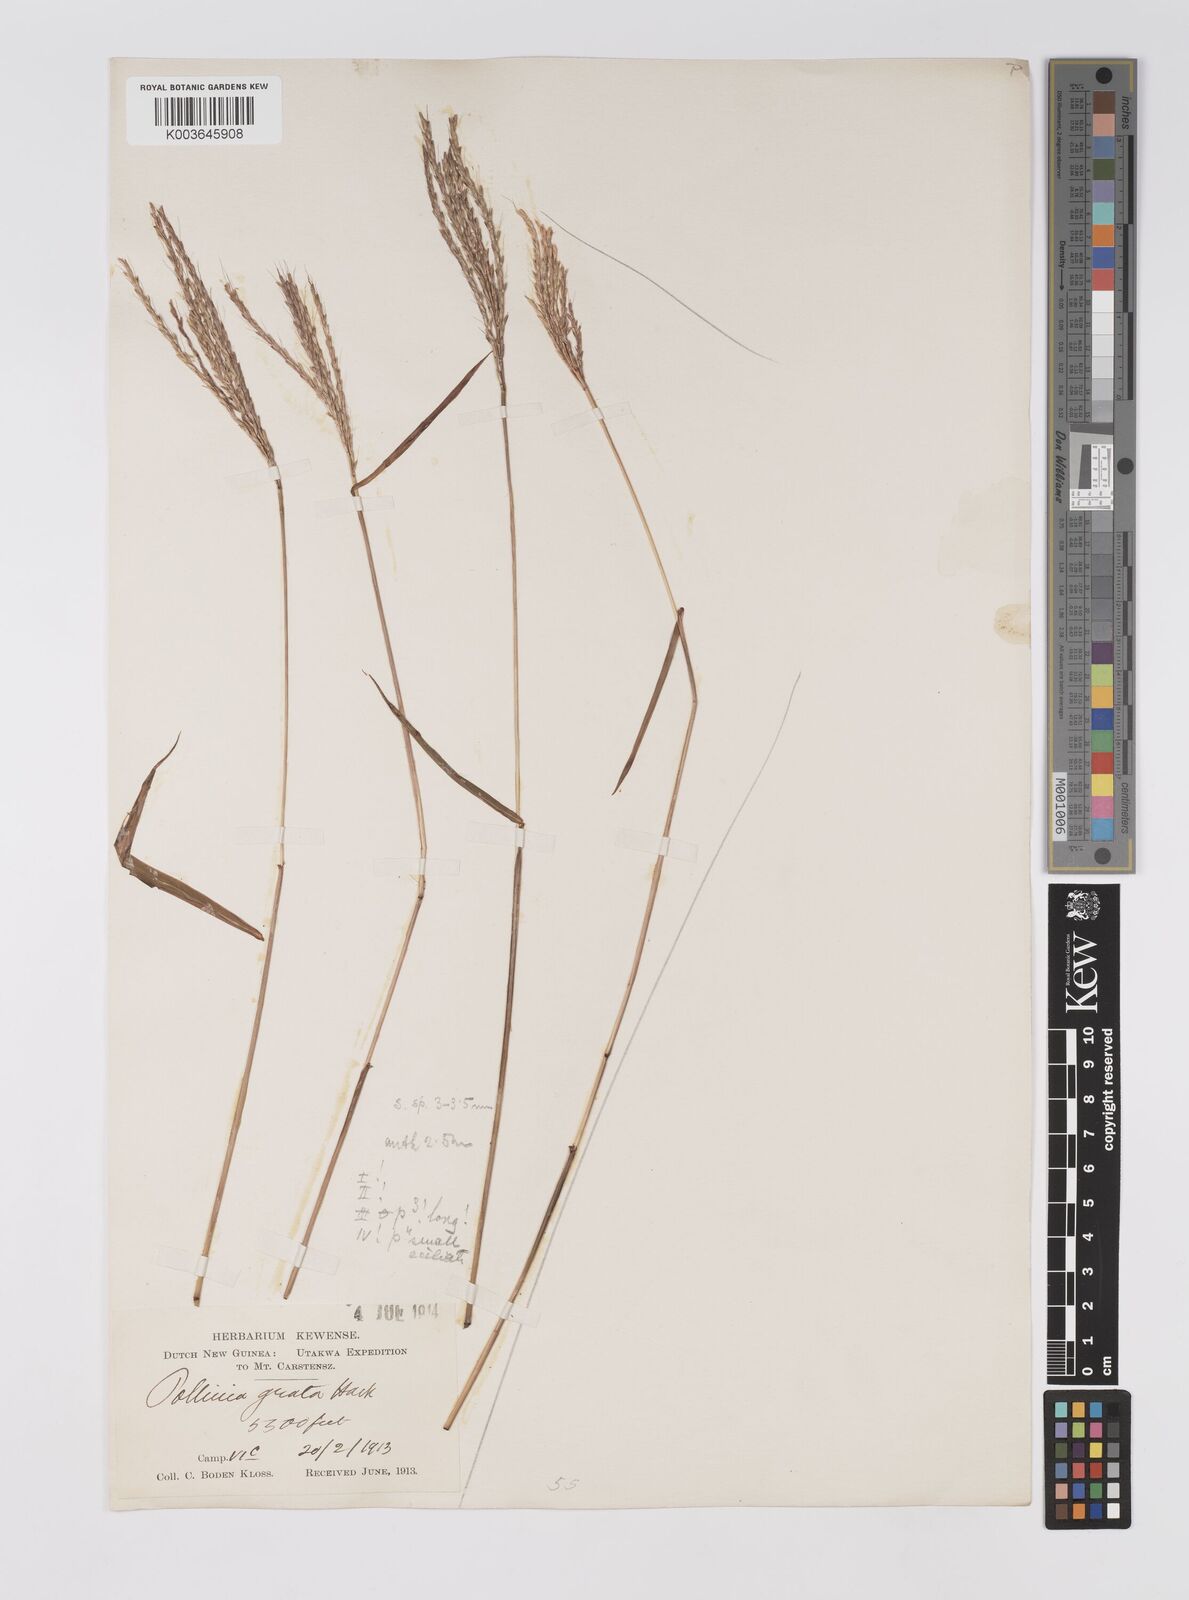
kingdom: Plantae
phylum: Tracheophyta
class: Liliopsida
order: Poales
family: Poaceae
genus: Microstegium
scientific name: Microstegium fasciculatum
